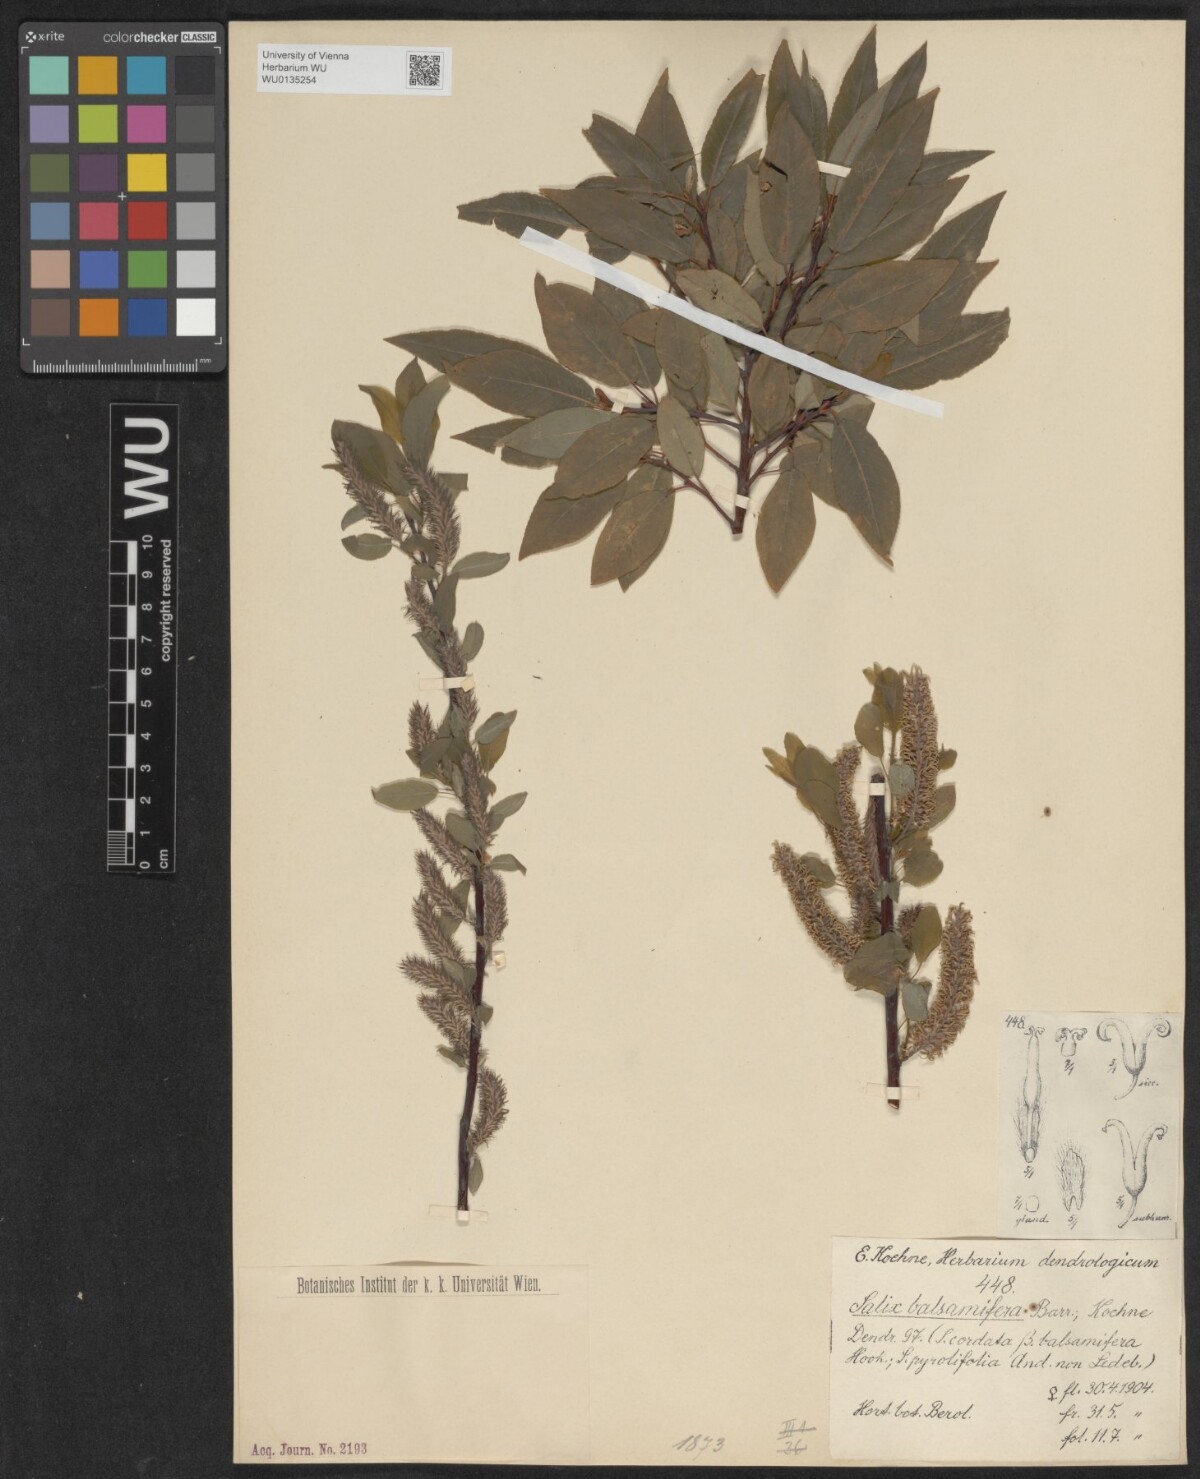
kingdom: Plantae
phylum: Tracheophyta
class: Magnoliopsida
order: Malpighiales
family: Salicaceae
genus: Salix
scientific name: Salix pyrifolia
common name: Balsam willow
